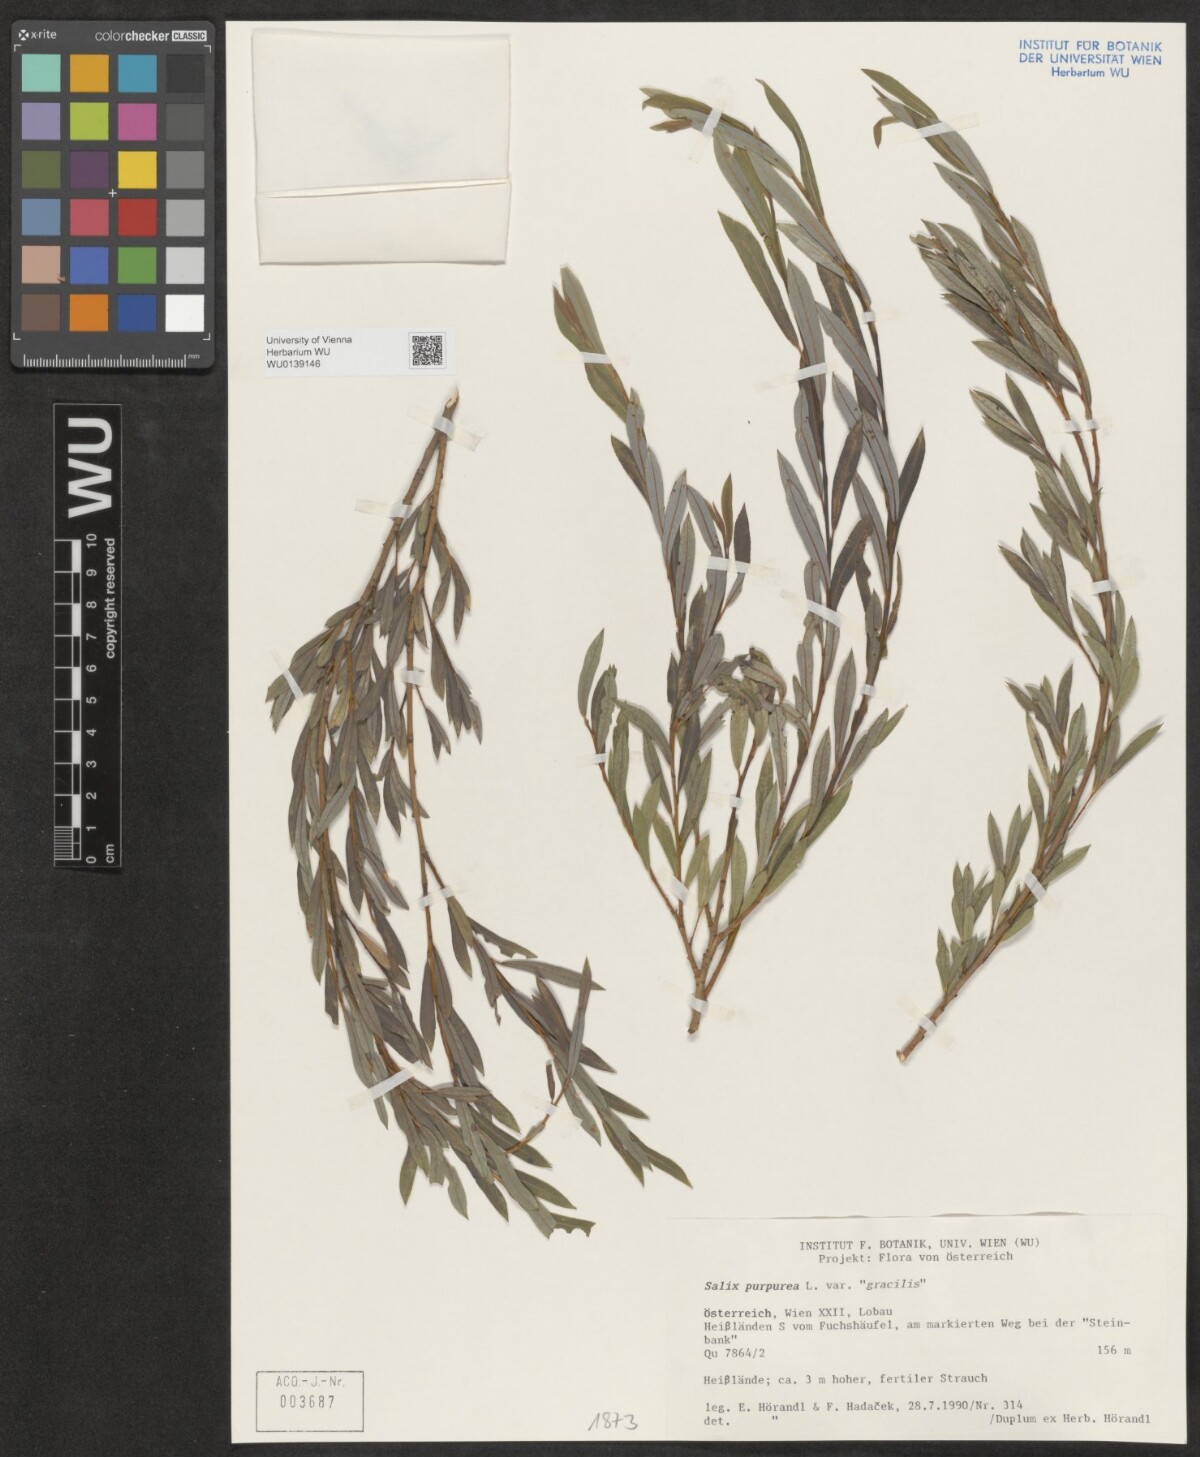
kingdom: Plantae
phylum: Tracheophyta
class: Magnoliopsida
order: Malpighiales
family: Salicaceae
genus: Salix
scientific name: Salix purpurea
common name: Purple willow
